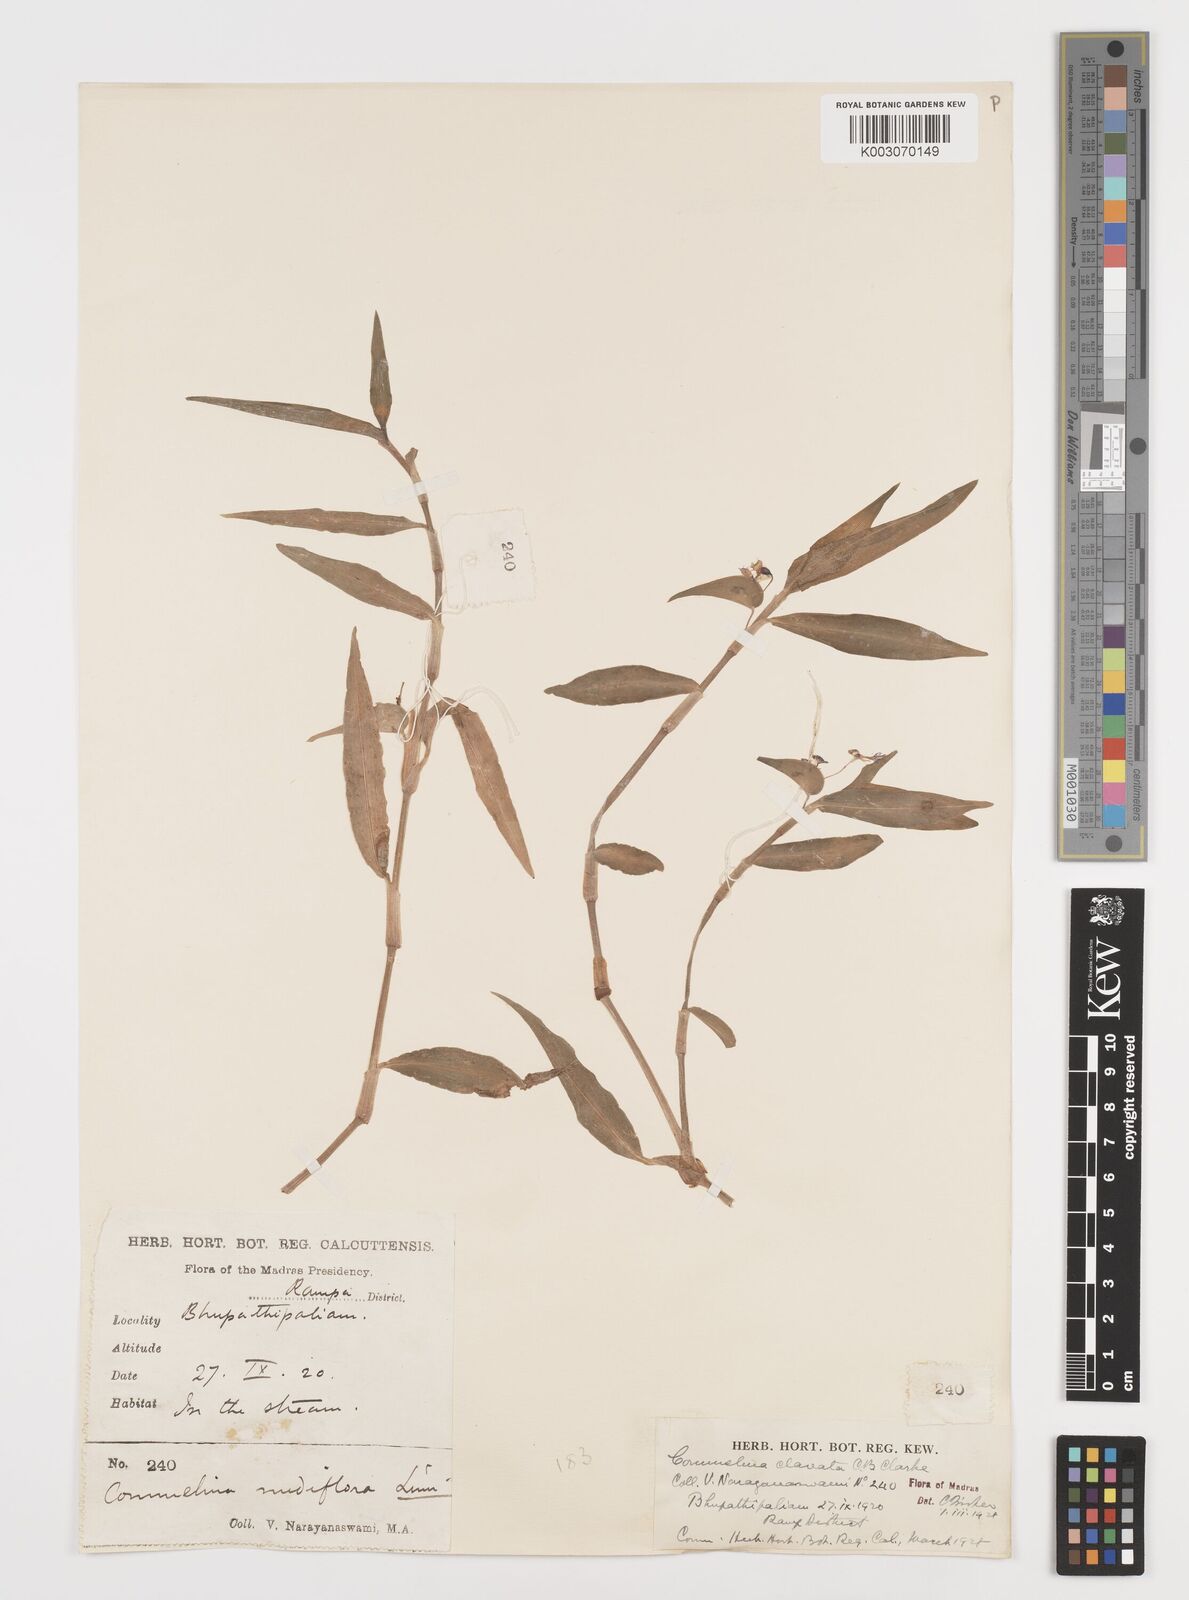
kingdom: Plantae
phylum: Tracheophyta
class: Liliopsida
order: Commelinales
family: Commelinaceae
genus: Commelina
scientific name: Commelina clavata
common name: Willow leaved dayflower
